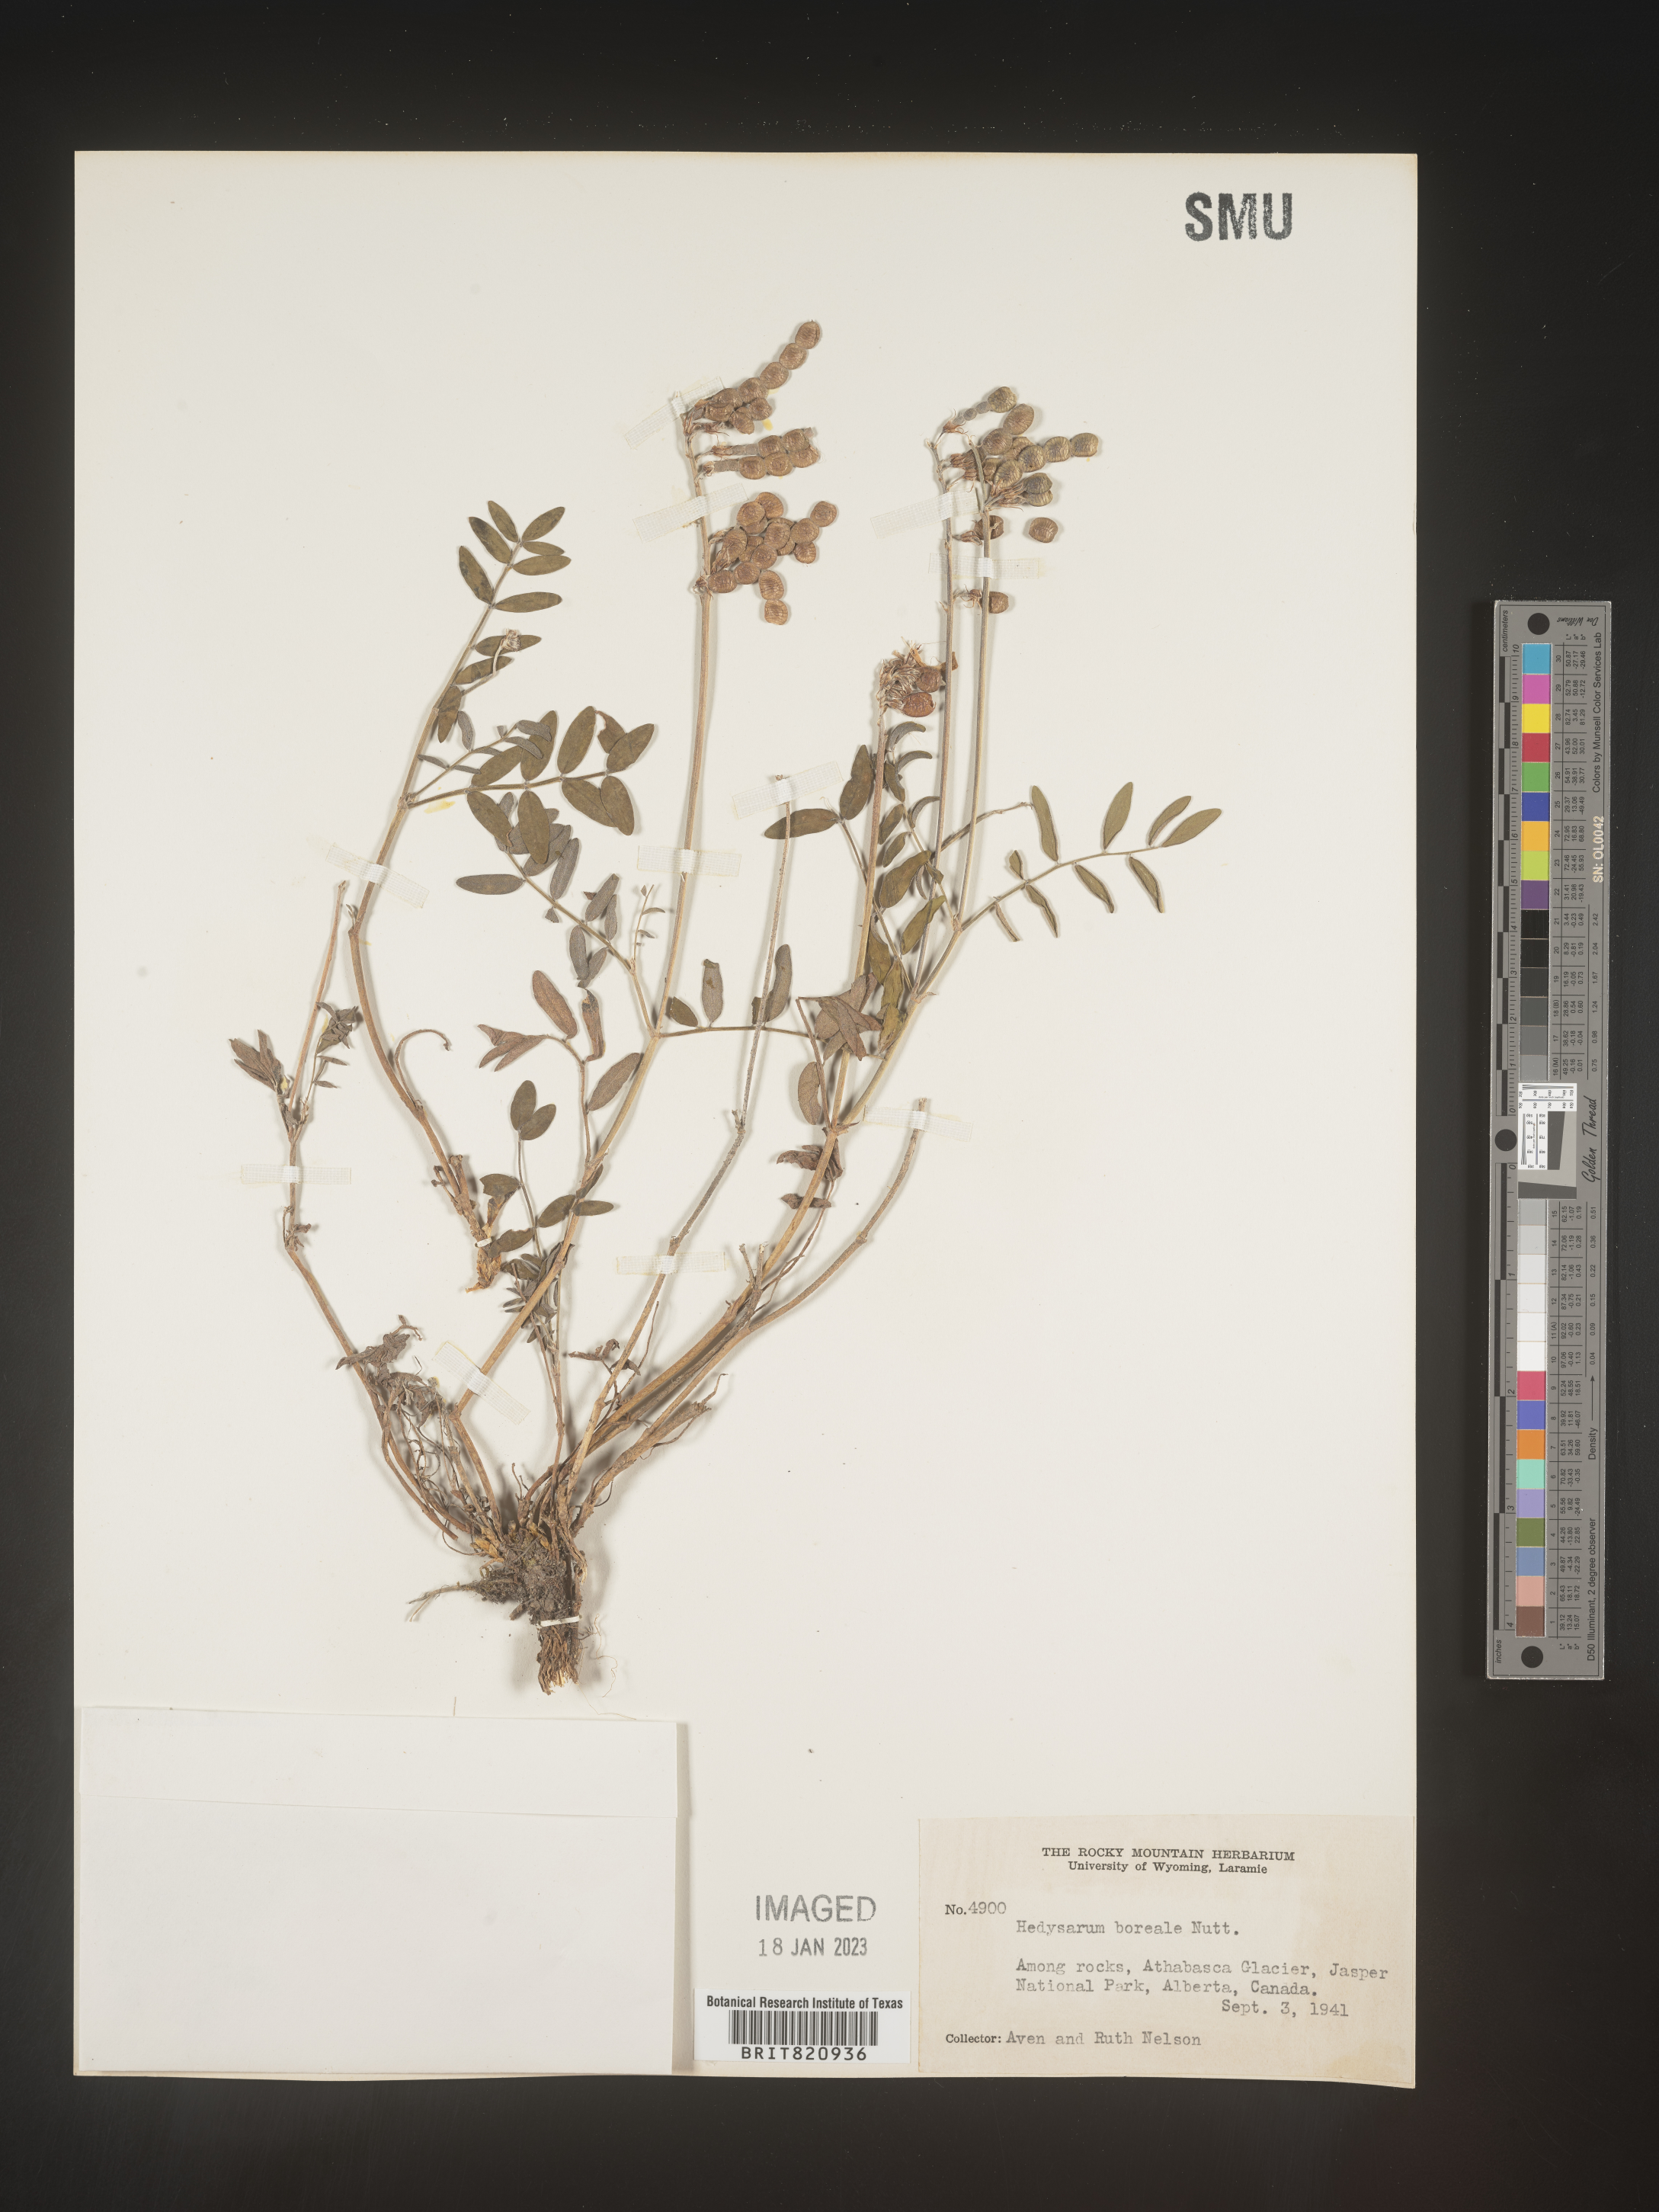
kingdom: Plantae
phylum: Tracheophyta
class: Magnoliopsida
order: Fabales
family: Fabaceae
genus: Hedysarum
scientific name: Hedysarum boreale
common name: Northern sweet-vetch
